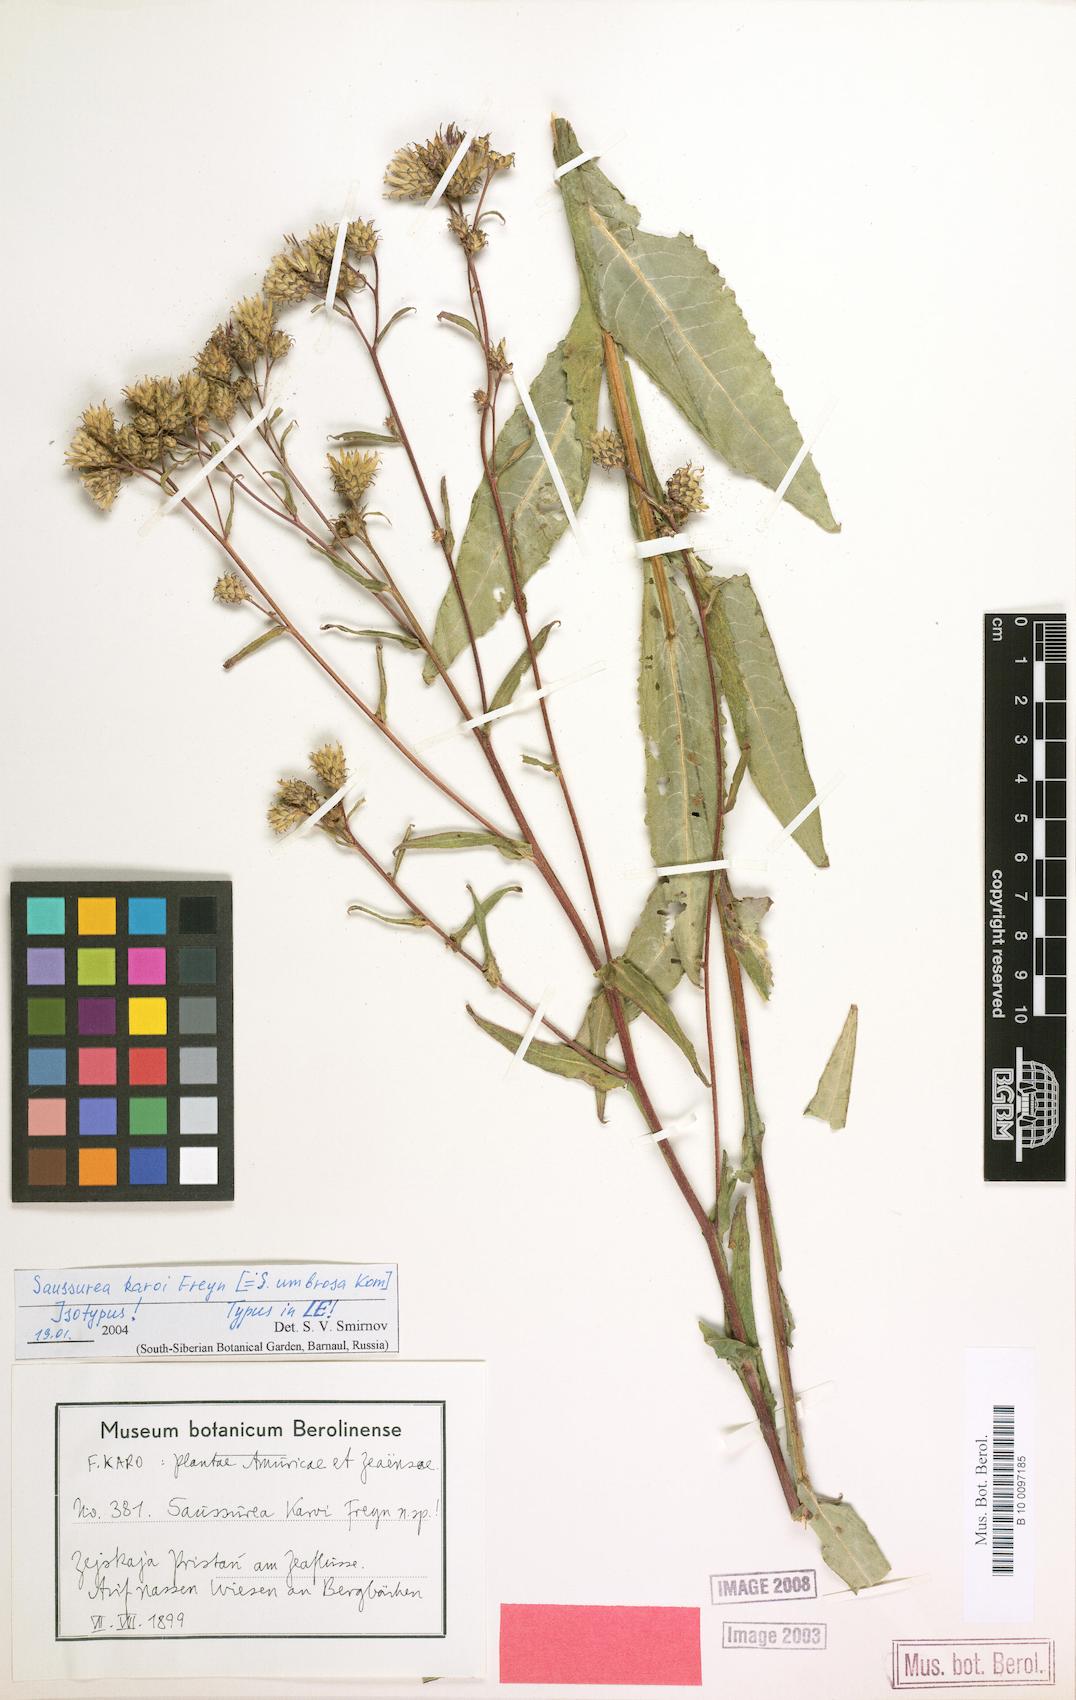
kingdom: Plantae
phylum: Tracheophyta
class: Magnoliopsida
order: Asterales
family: Asteraceae
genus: Saussurea
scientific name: Saussurea umbrosa
